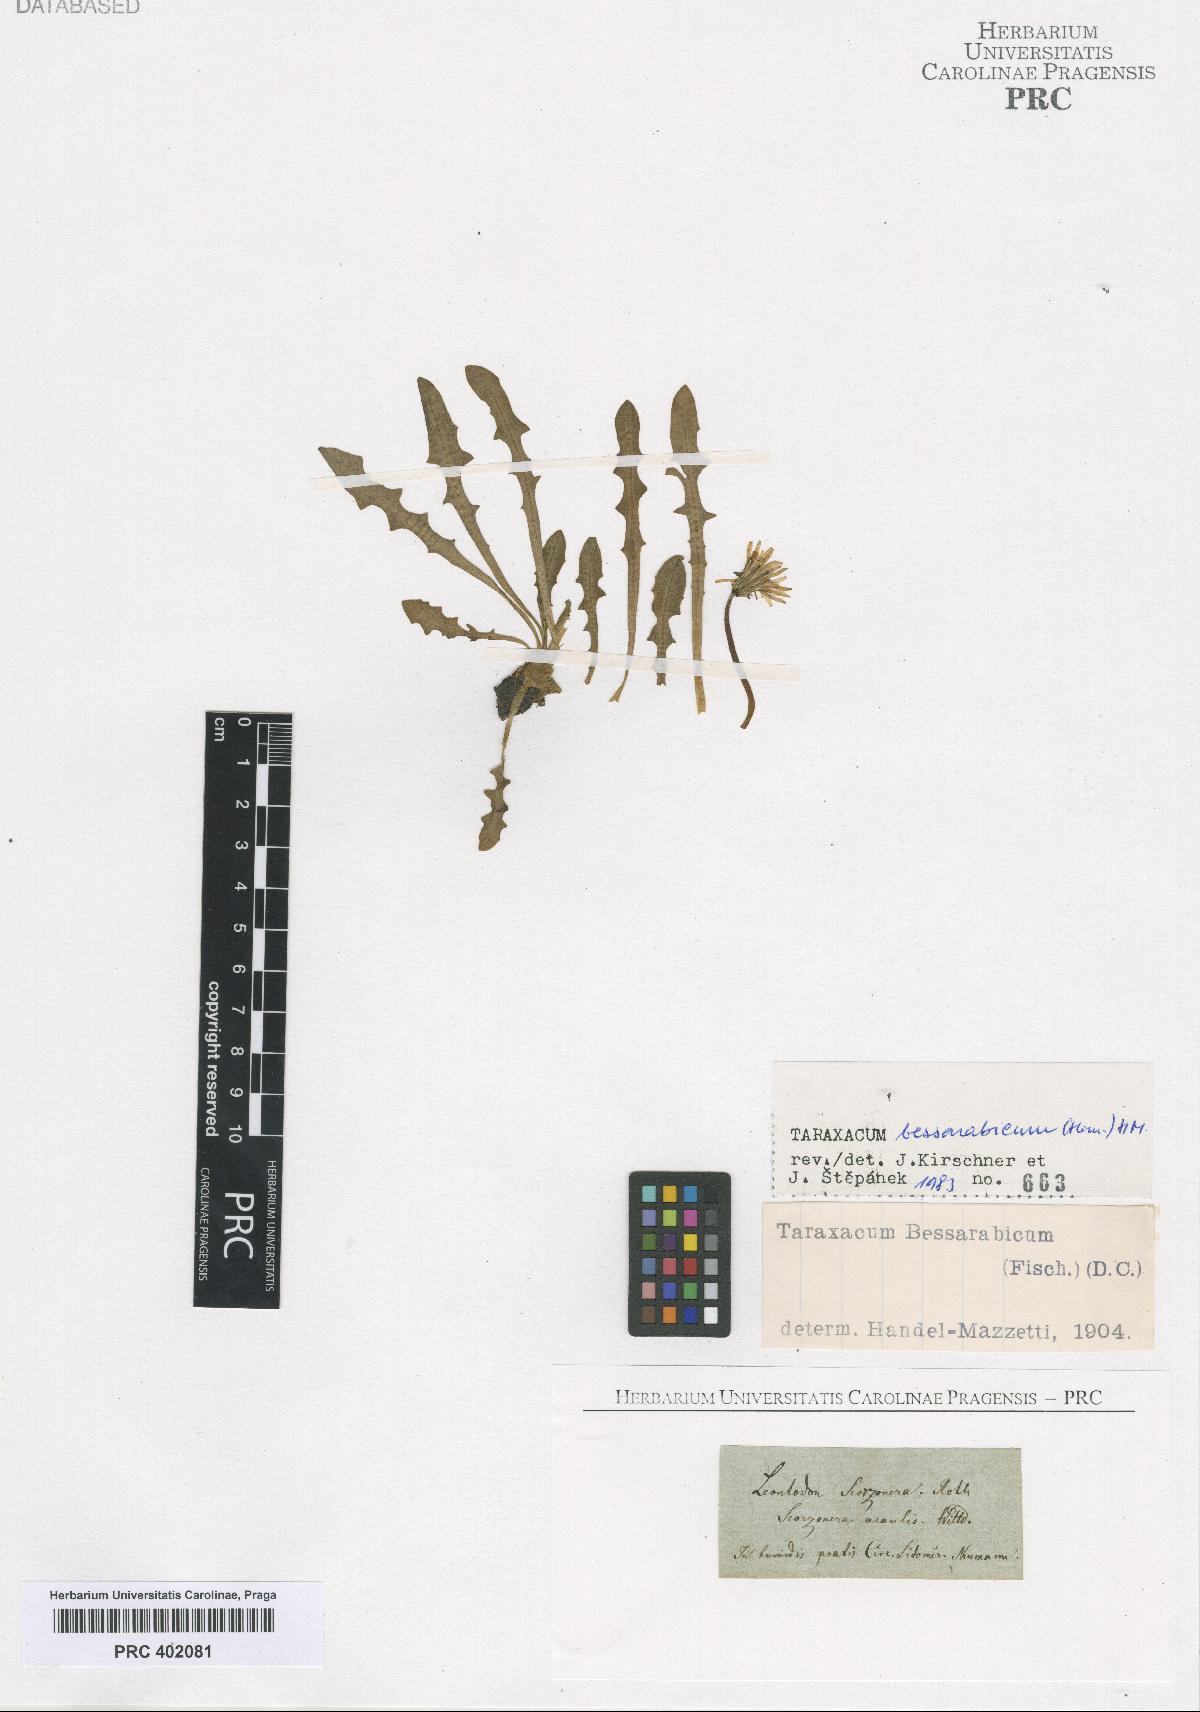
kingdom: Plantae
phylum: Tracheophyta
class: Magnoliopsida
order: Asterales
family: Asteraceae
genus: Taraxacum
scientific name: Taraxacum bessarabicum
